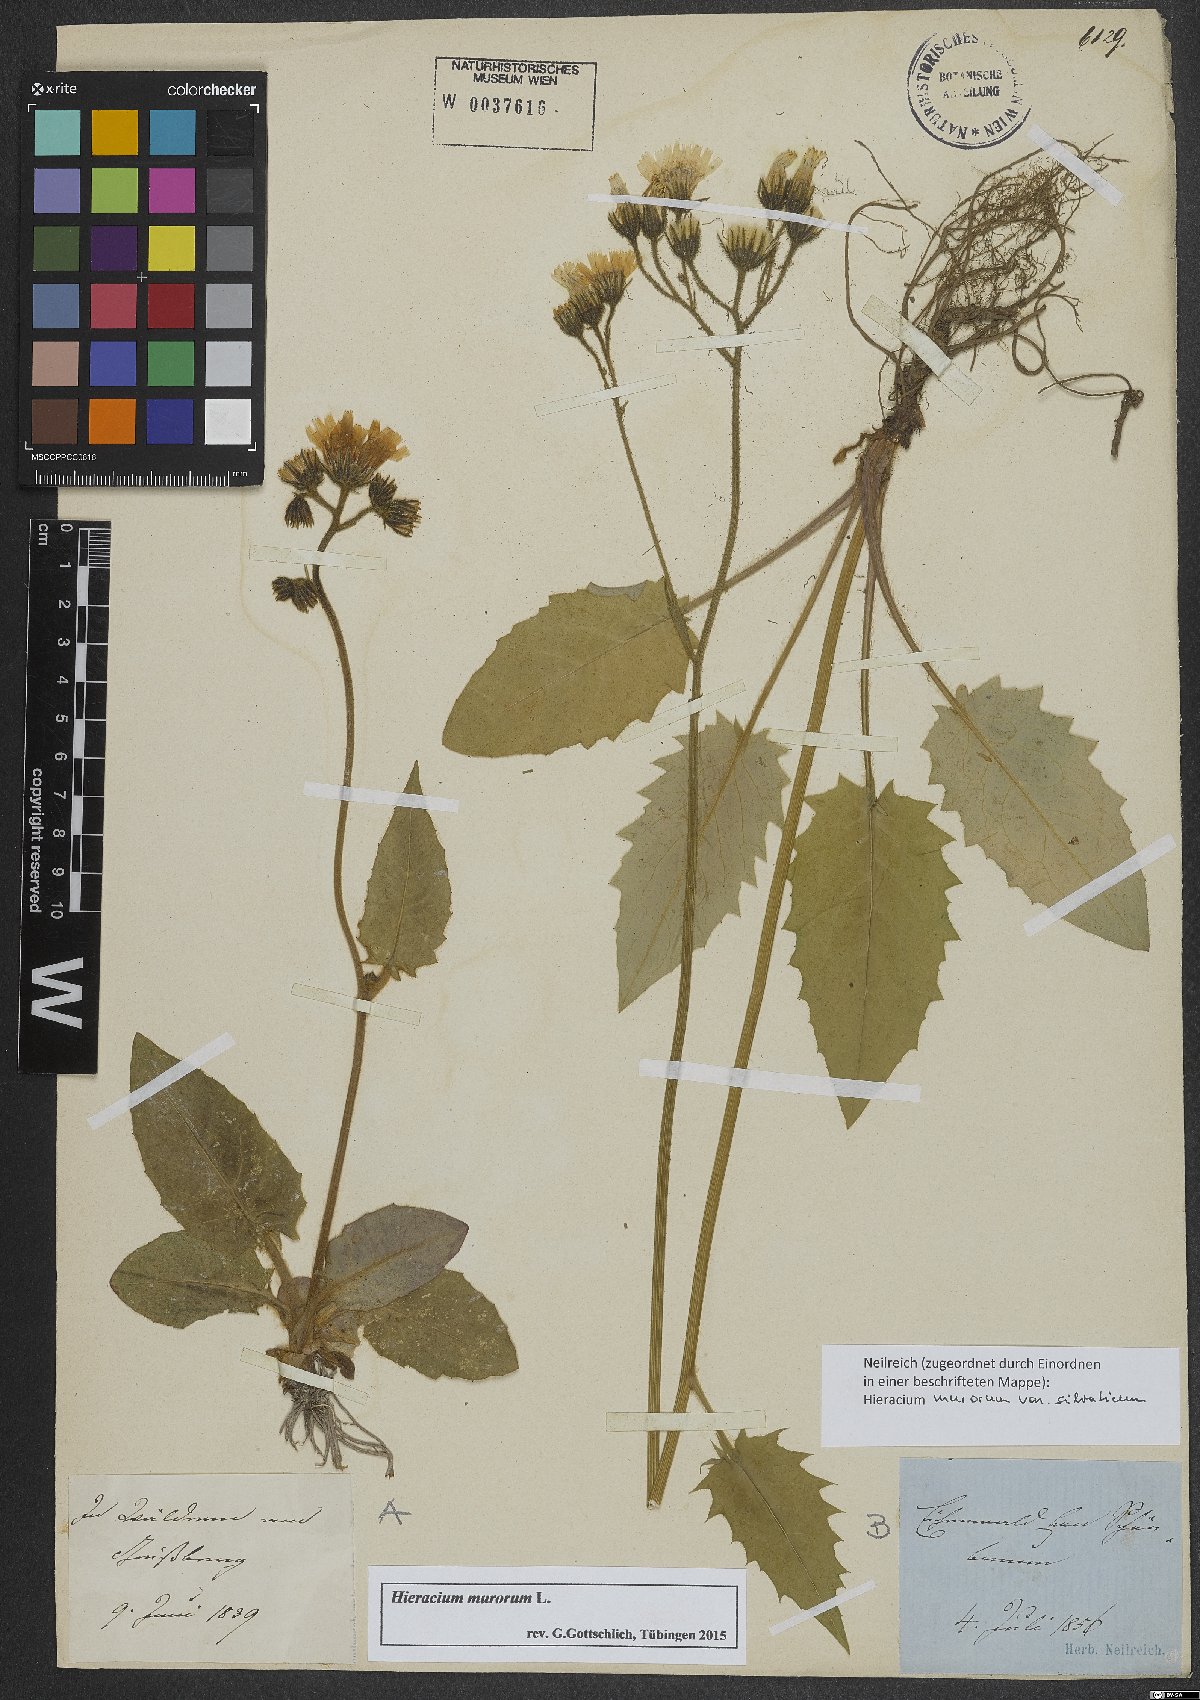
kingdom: Plantae
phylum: Tracheophyta
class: Magnoliopsida
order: Asterales
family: Asteraceae
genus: Hieracium
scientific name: Hieracium murorum
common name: Wall hawkweed
